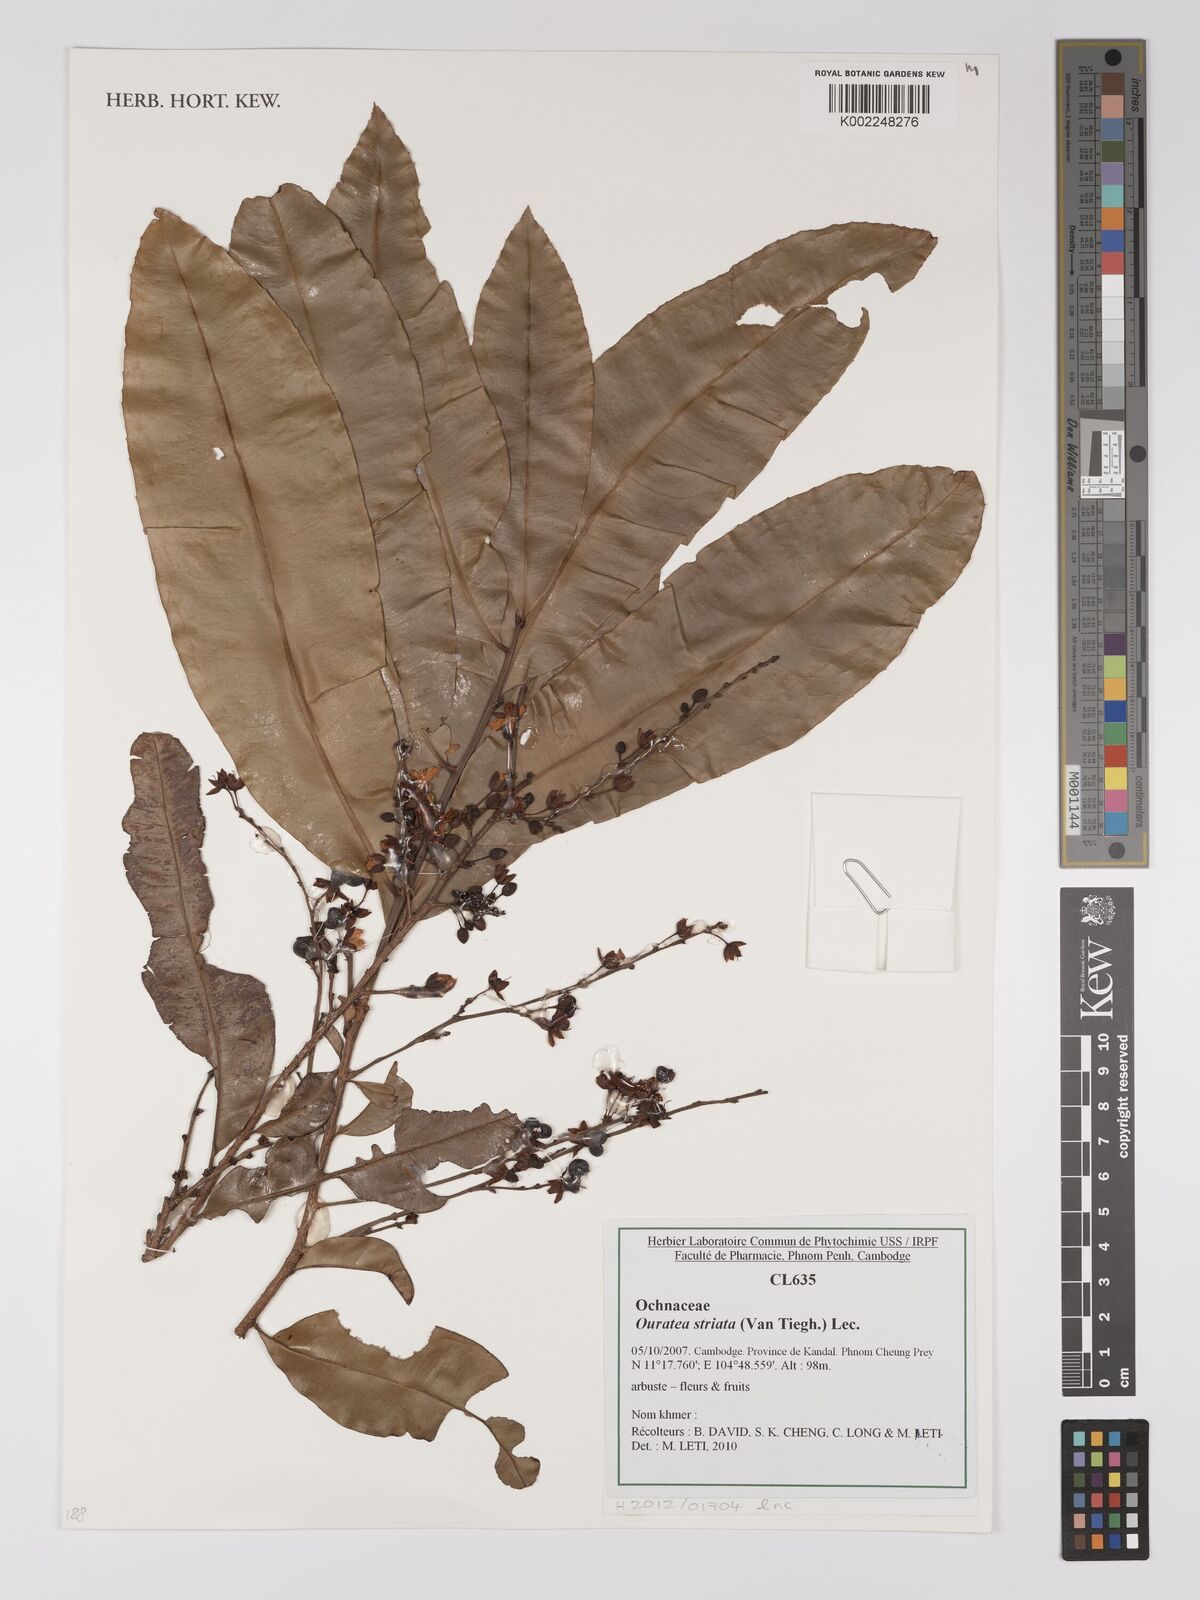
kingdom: Plantae
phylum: Tracheophyta
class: Magnoliopsida
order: Malpighiales
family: Ochnaceae
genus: Gomphia
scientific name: Gomphia striata
